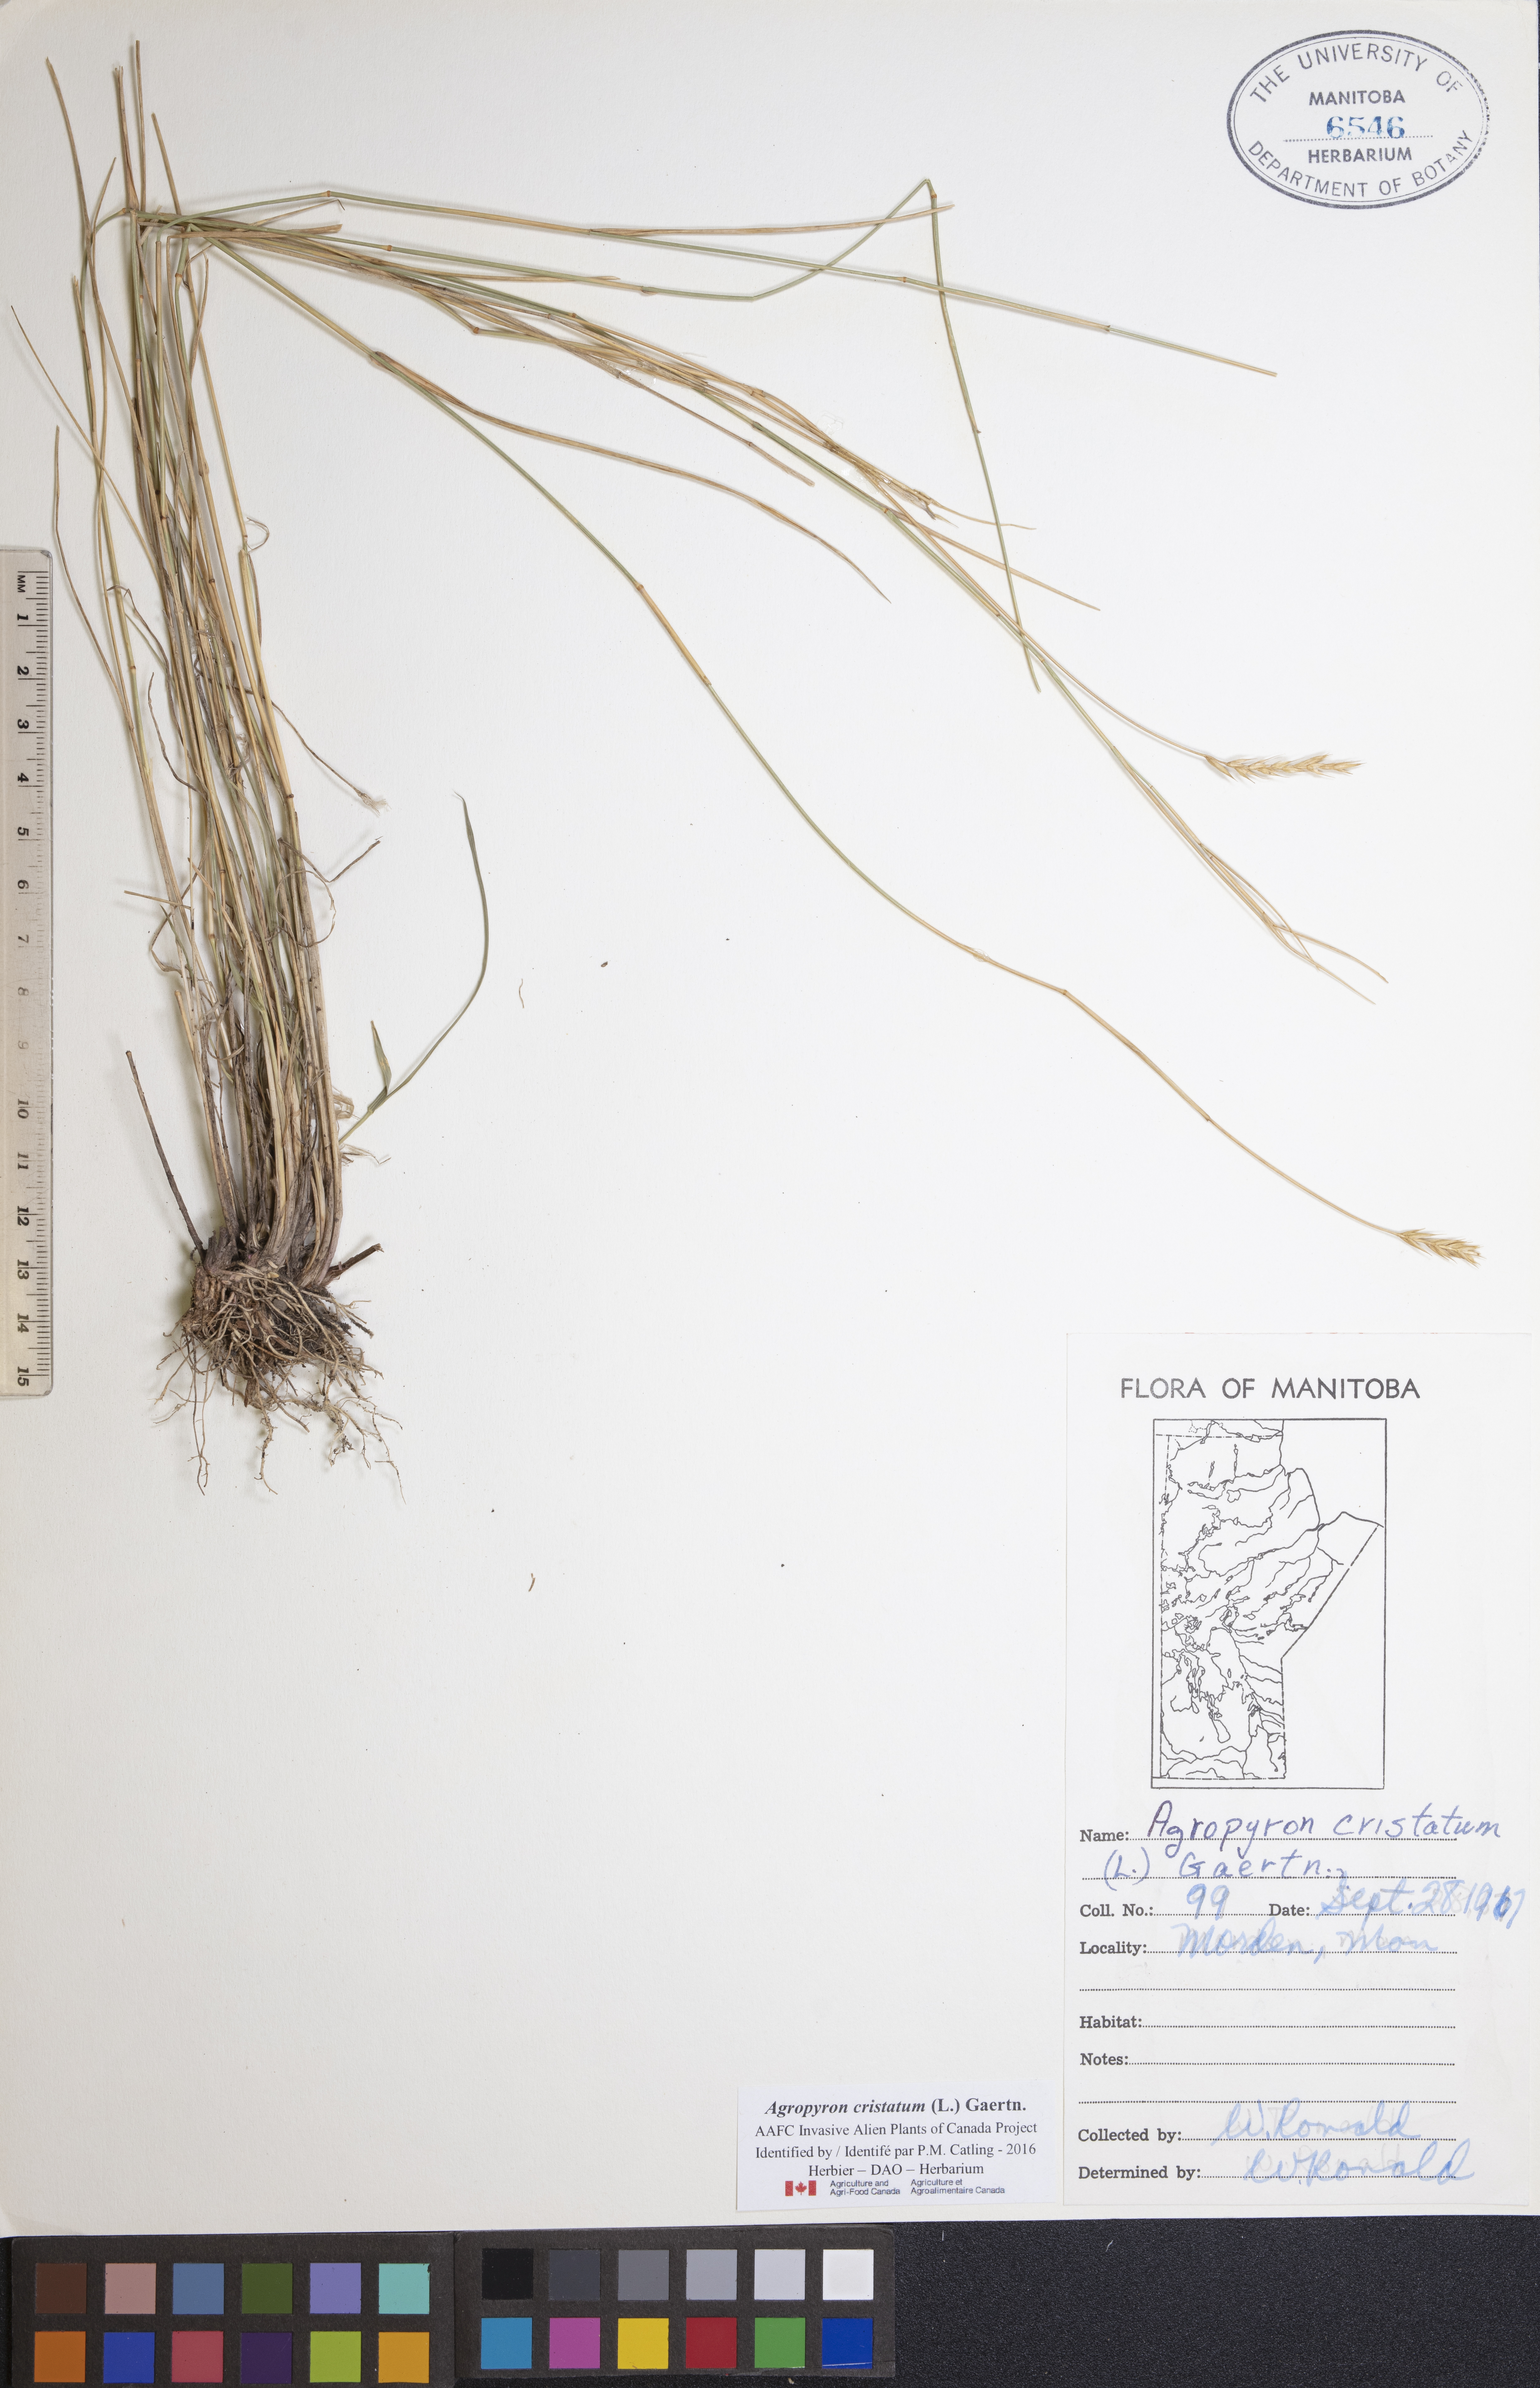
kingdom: Plantae
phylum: Tracheophyta
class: Liliopsida
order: Poales
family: Poaceae
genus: Agropyron
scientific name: Agropyron cristatum
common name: Crested wheatgrass
